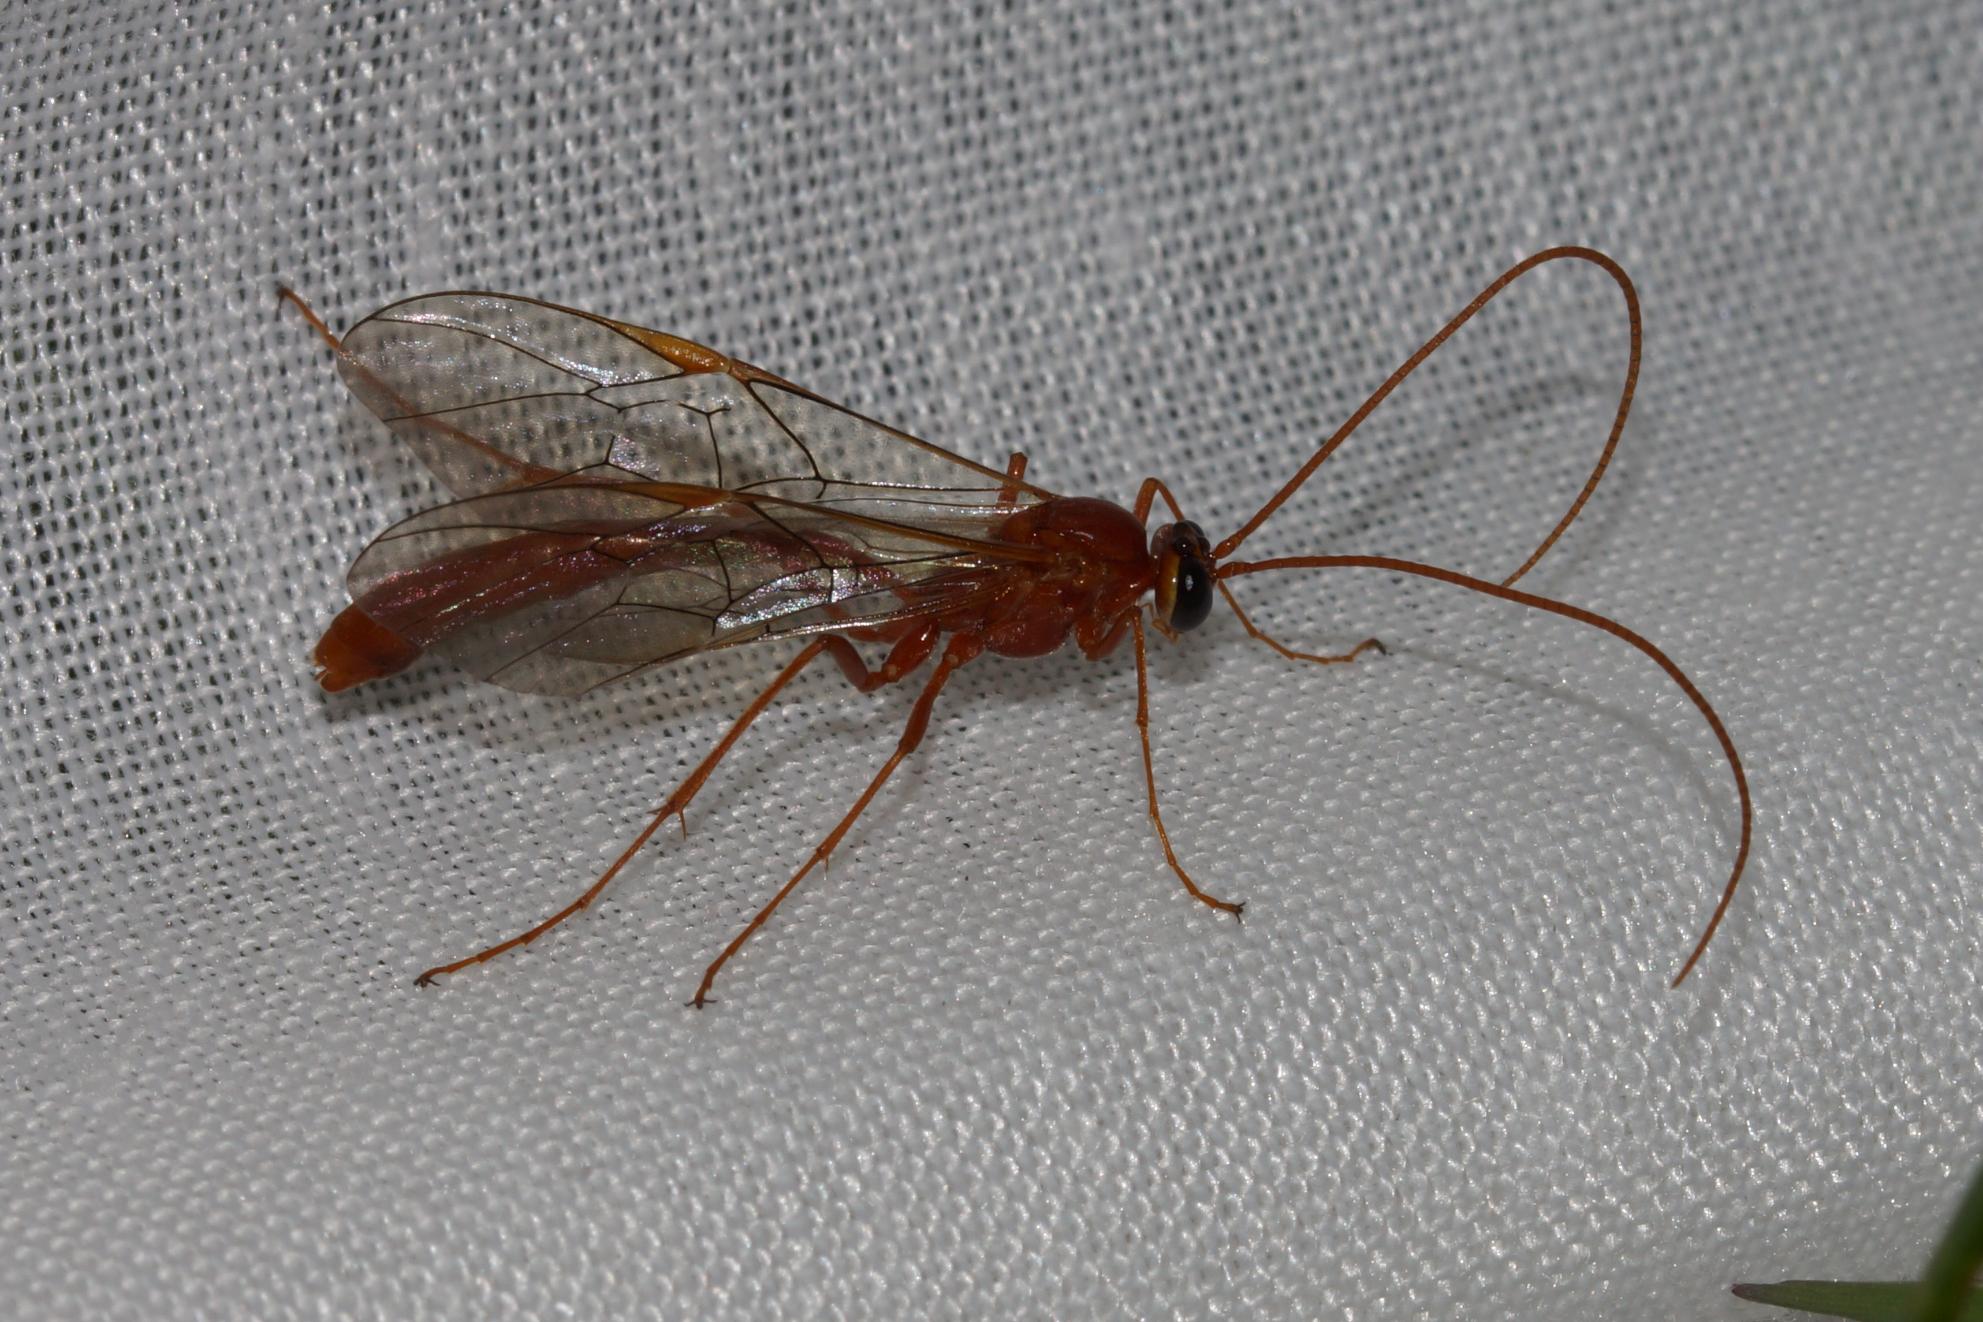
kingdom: Animalia
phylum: Arthropoda
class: Insecta
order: Hymenoptera
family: Ichneumonidae
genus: Ophion
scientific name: Ophion
